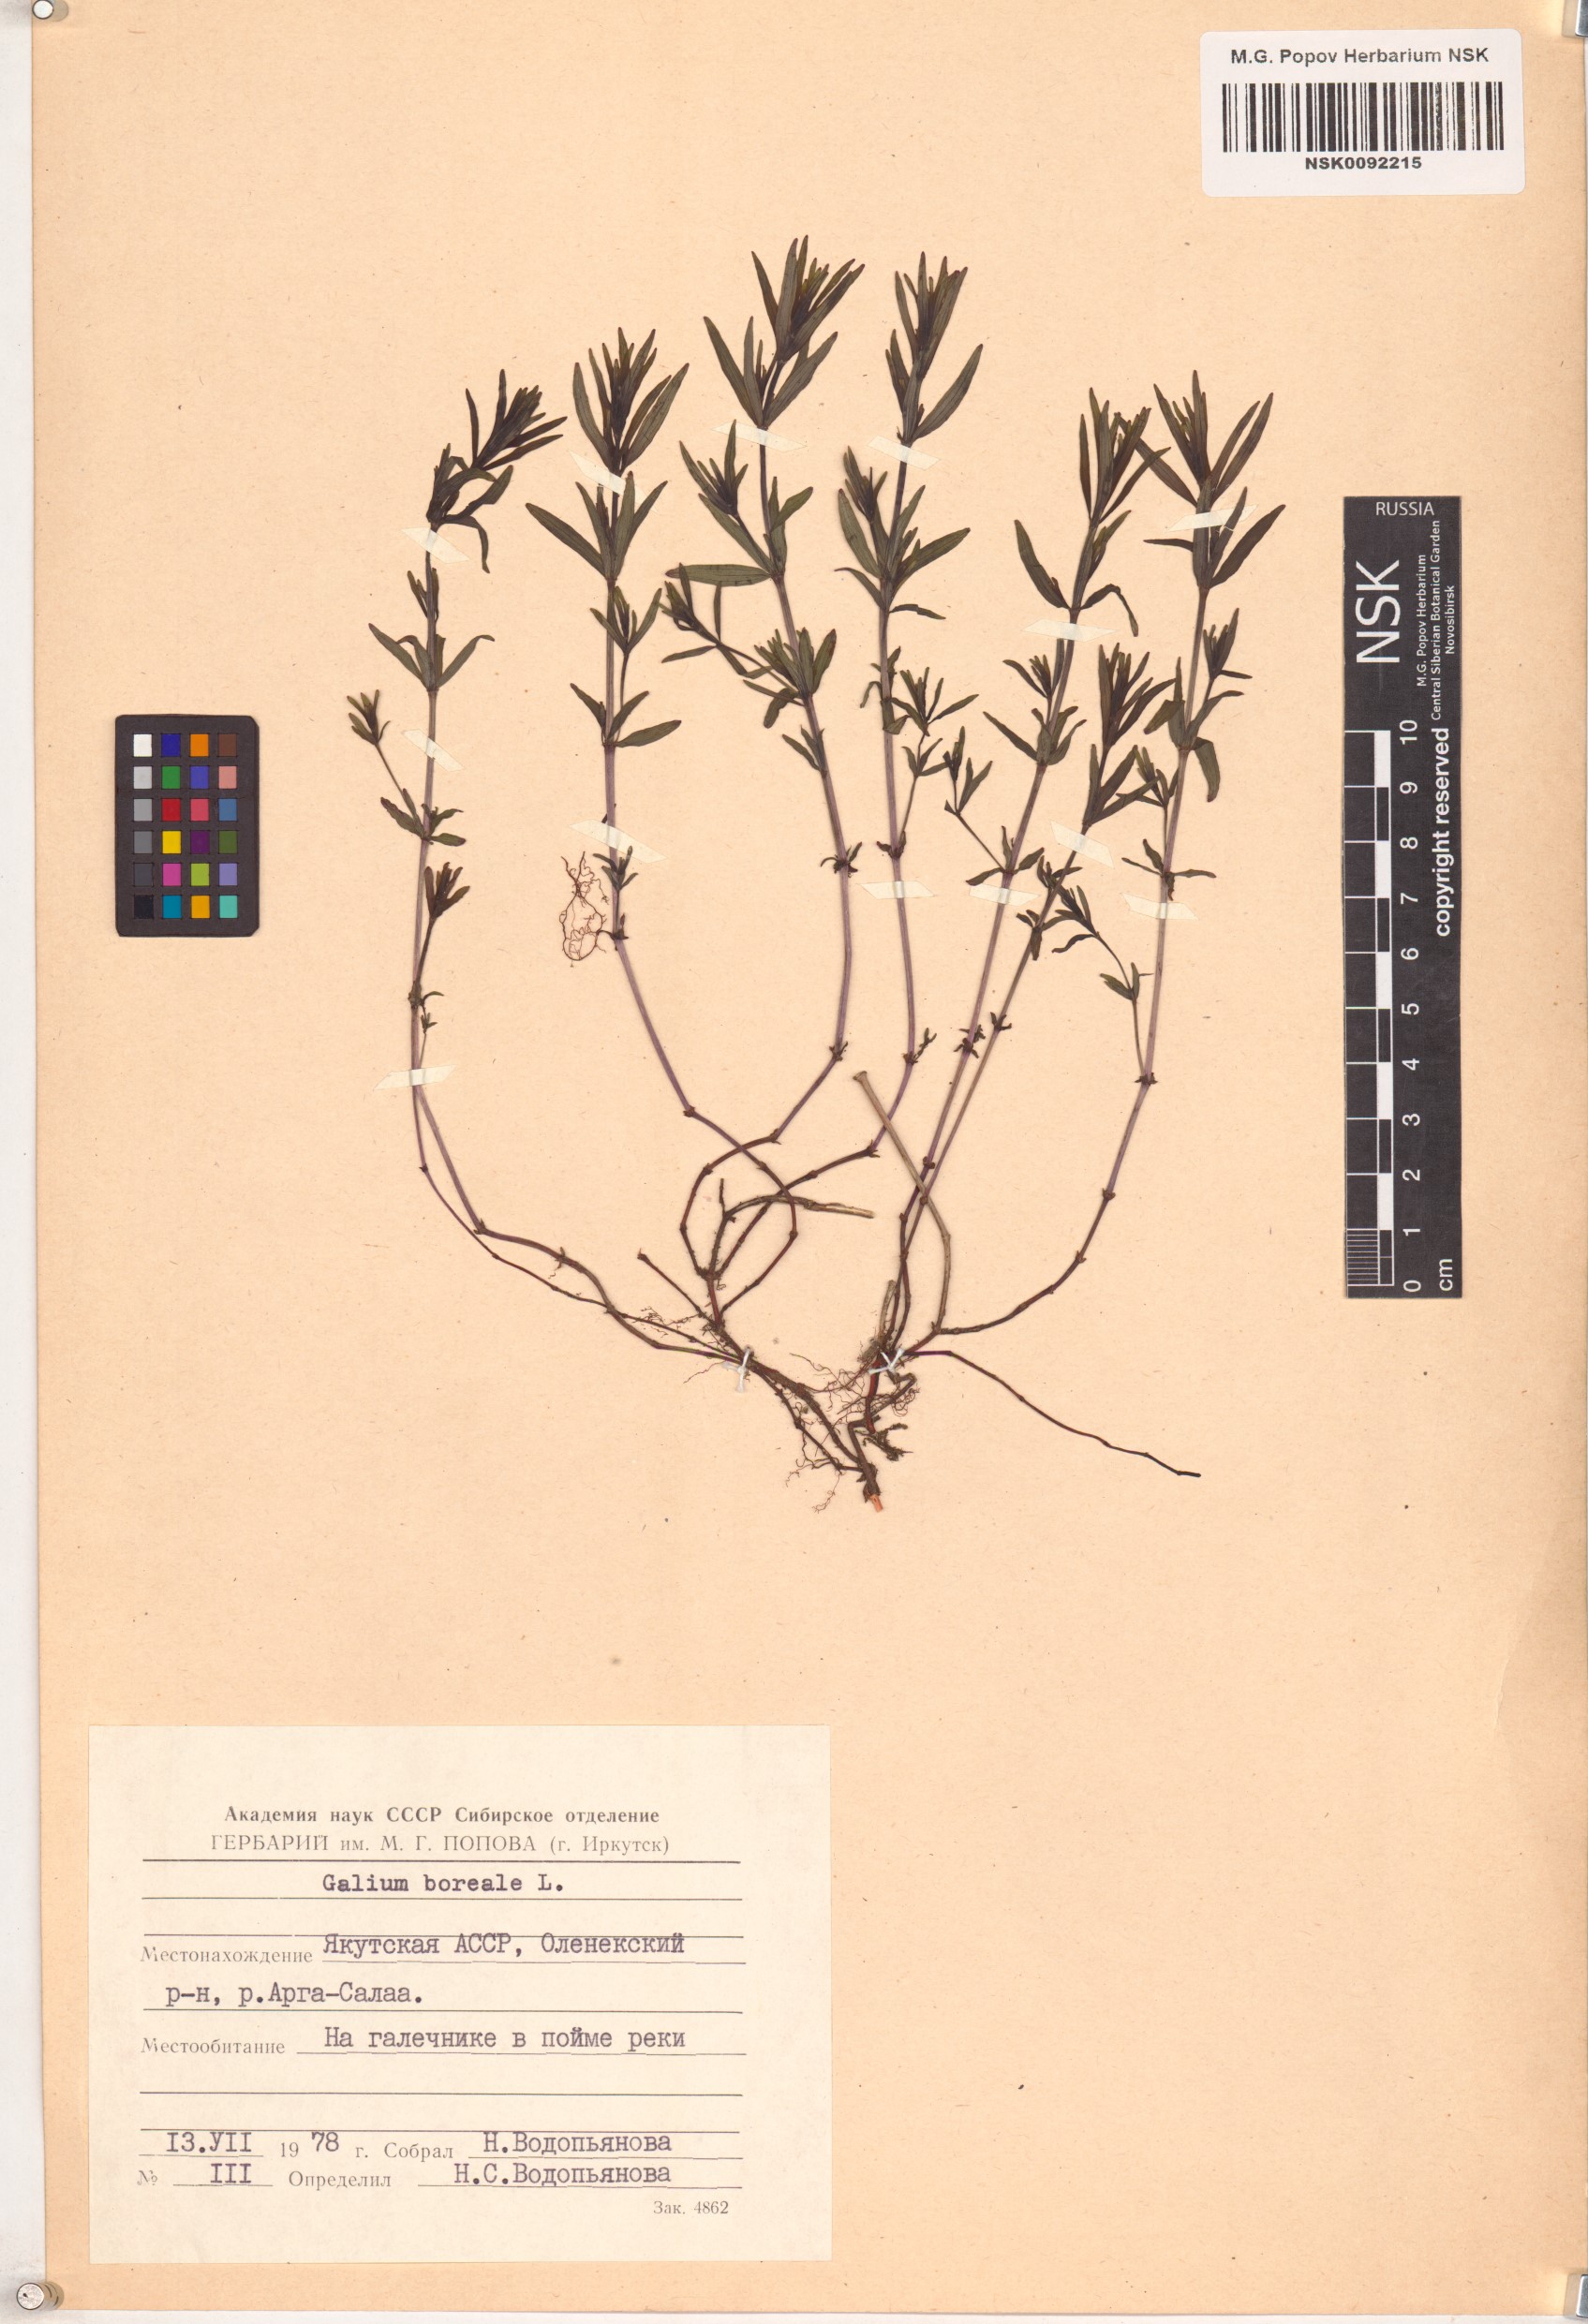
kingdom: Plantae
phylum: Tracheophyta
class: Magnoliopsida
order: Gentianales
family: Rubiaceae
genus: Galium
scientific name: Galium boreale
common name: Northern bedstraw
